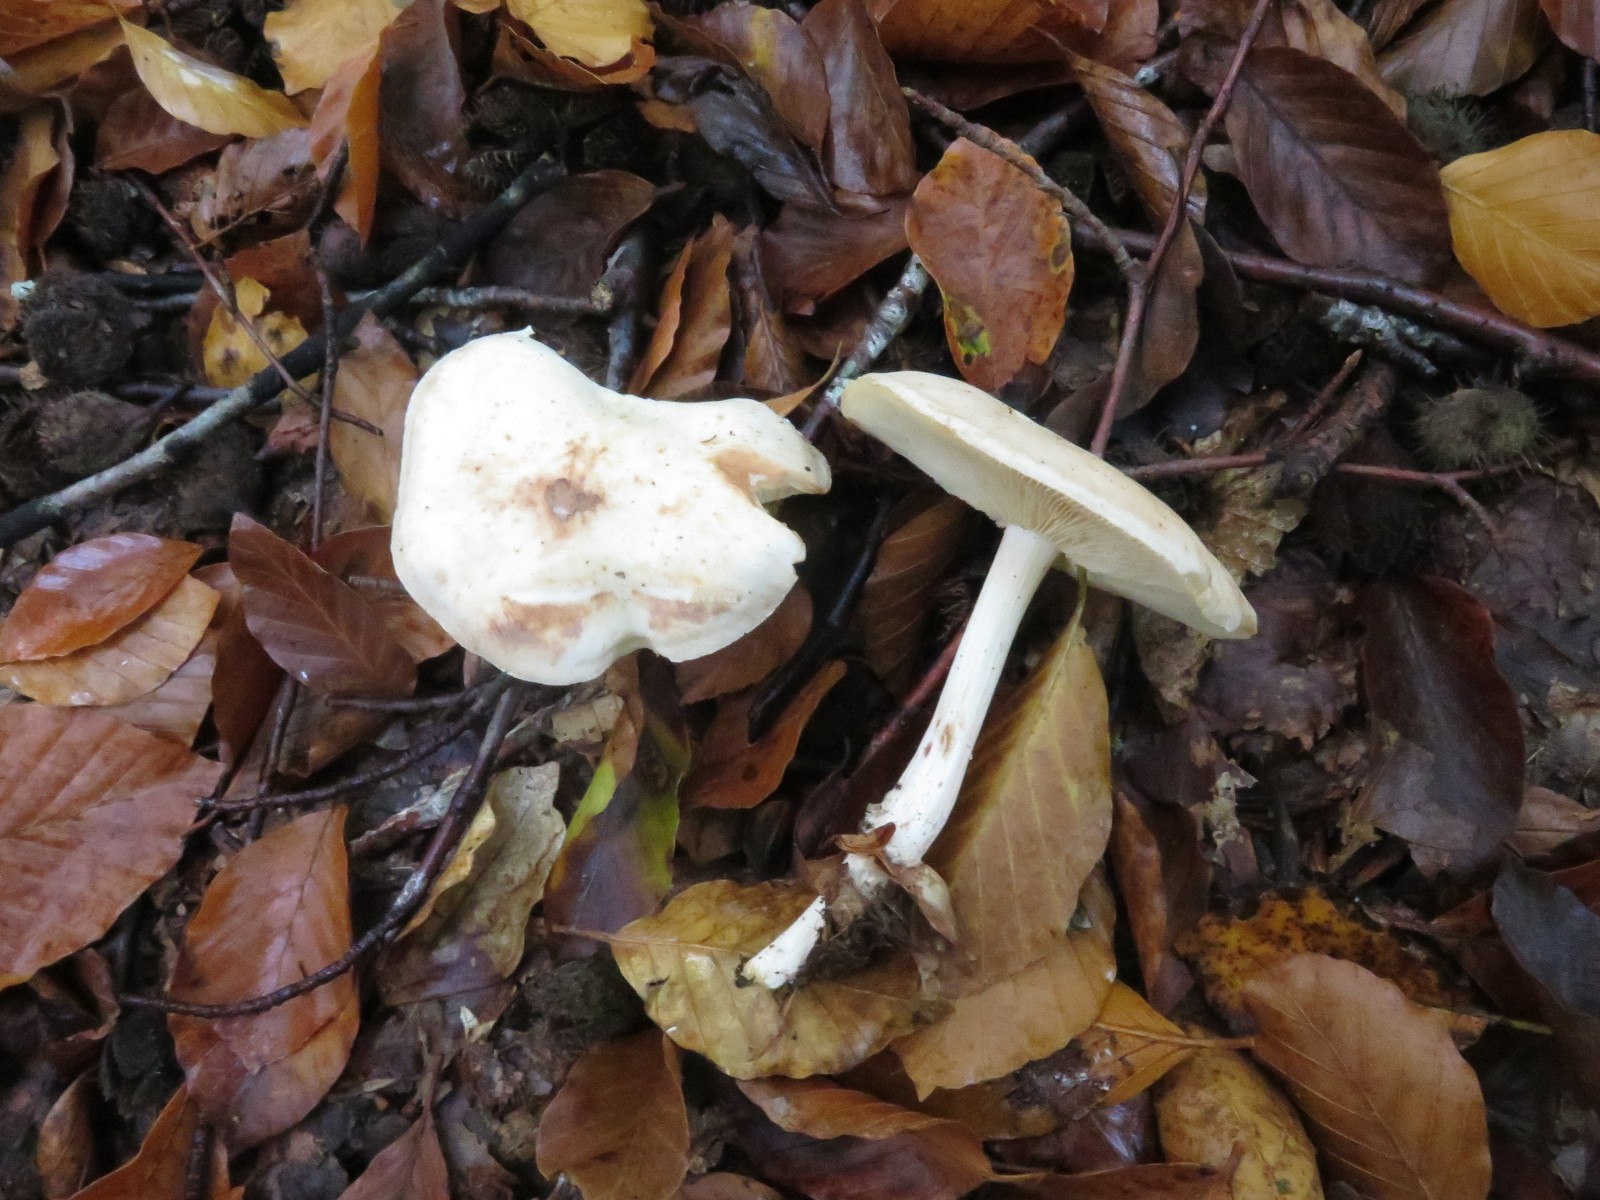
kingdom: Fungi
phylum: Basidiomycota
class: Agaricomycetes
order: Agaricales
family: Omphalotaceae
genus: Rhodocollybia
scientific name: Rhodocollybia maculata
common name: plettet fladhat
